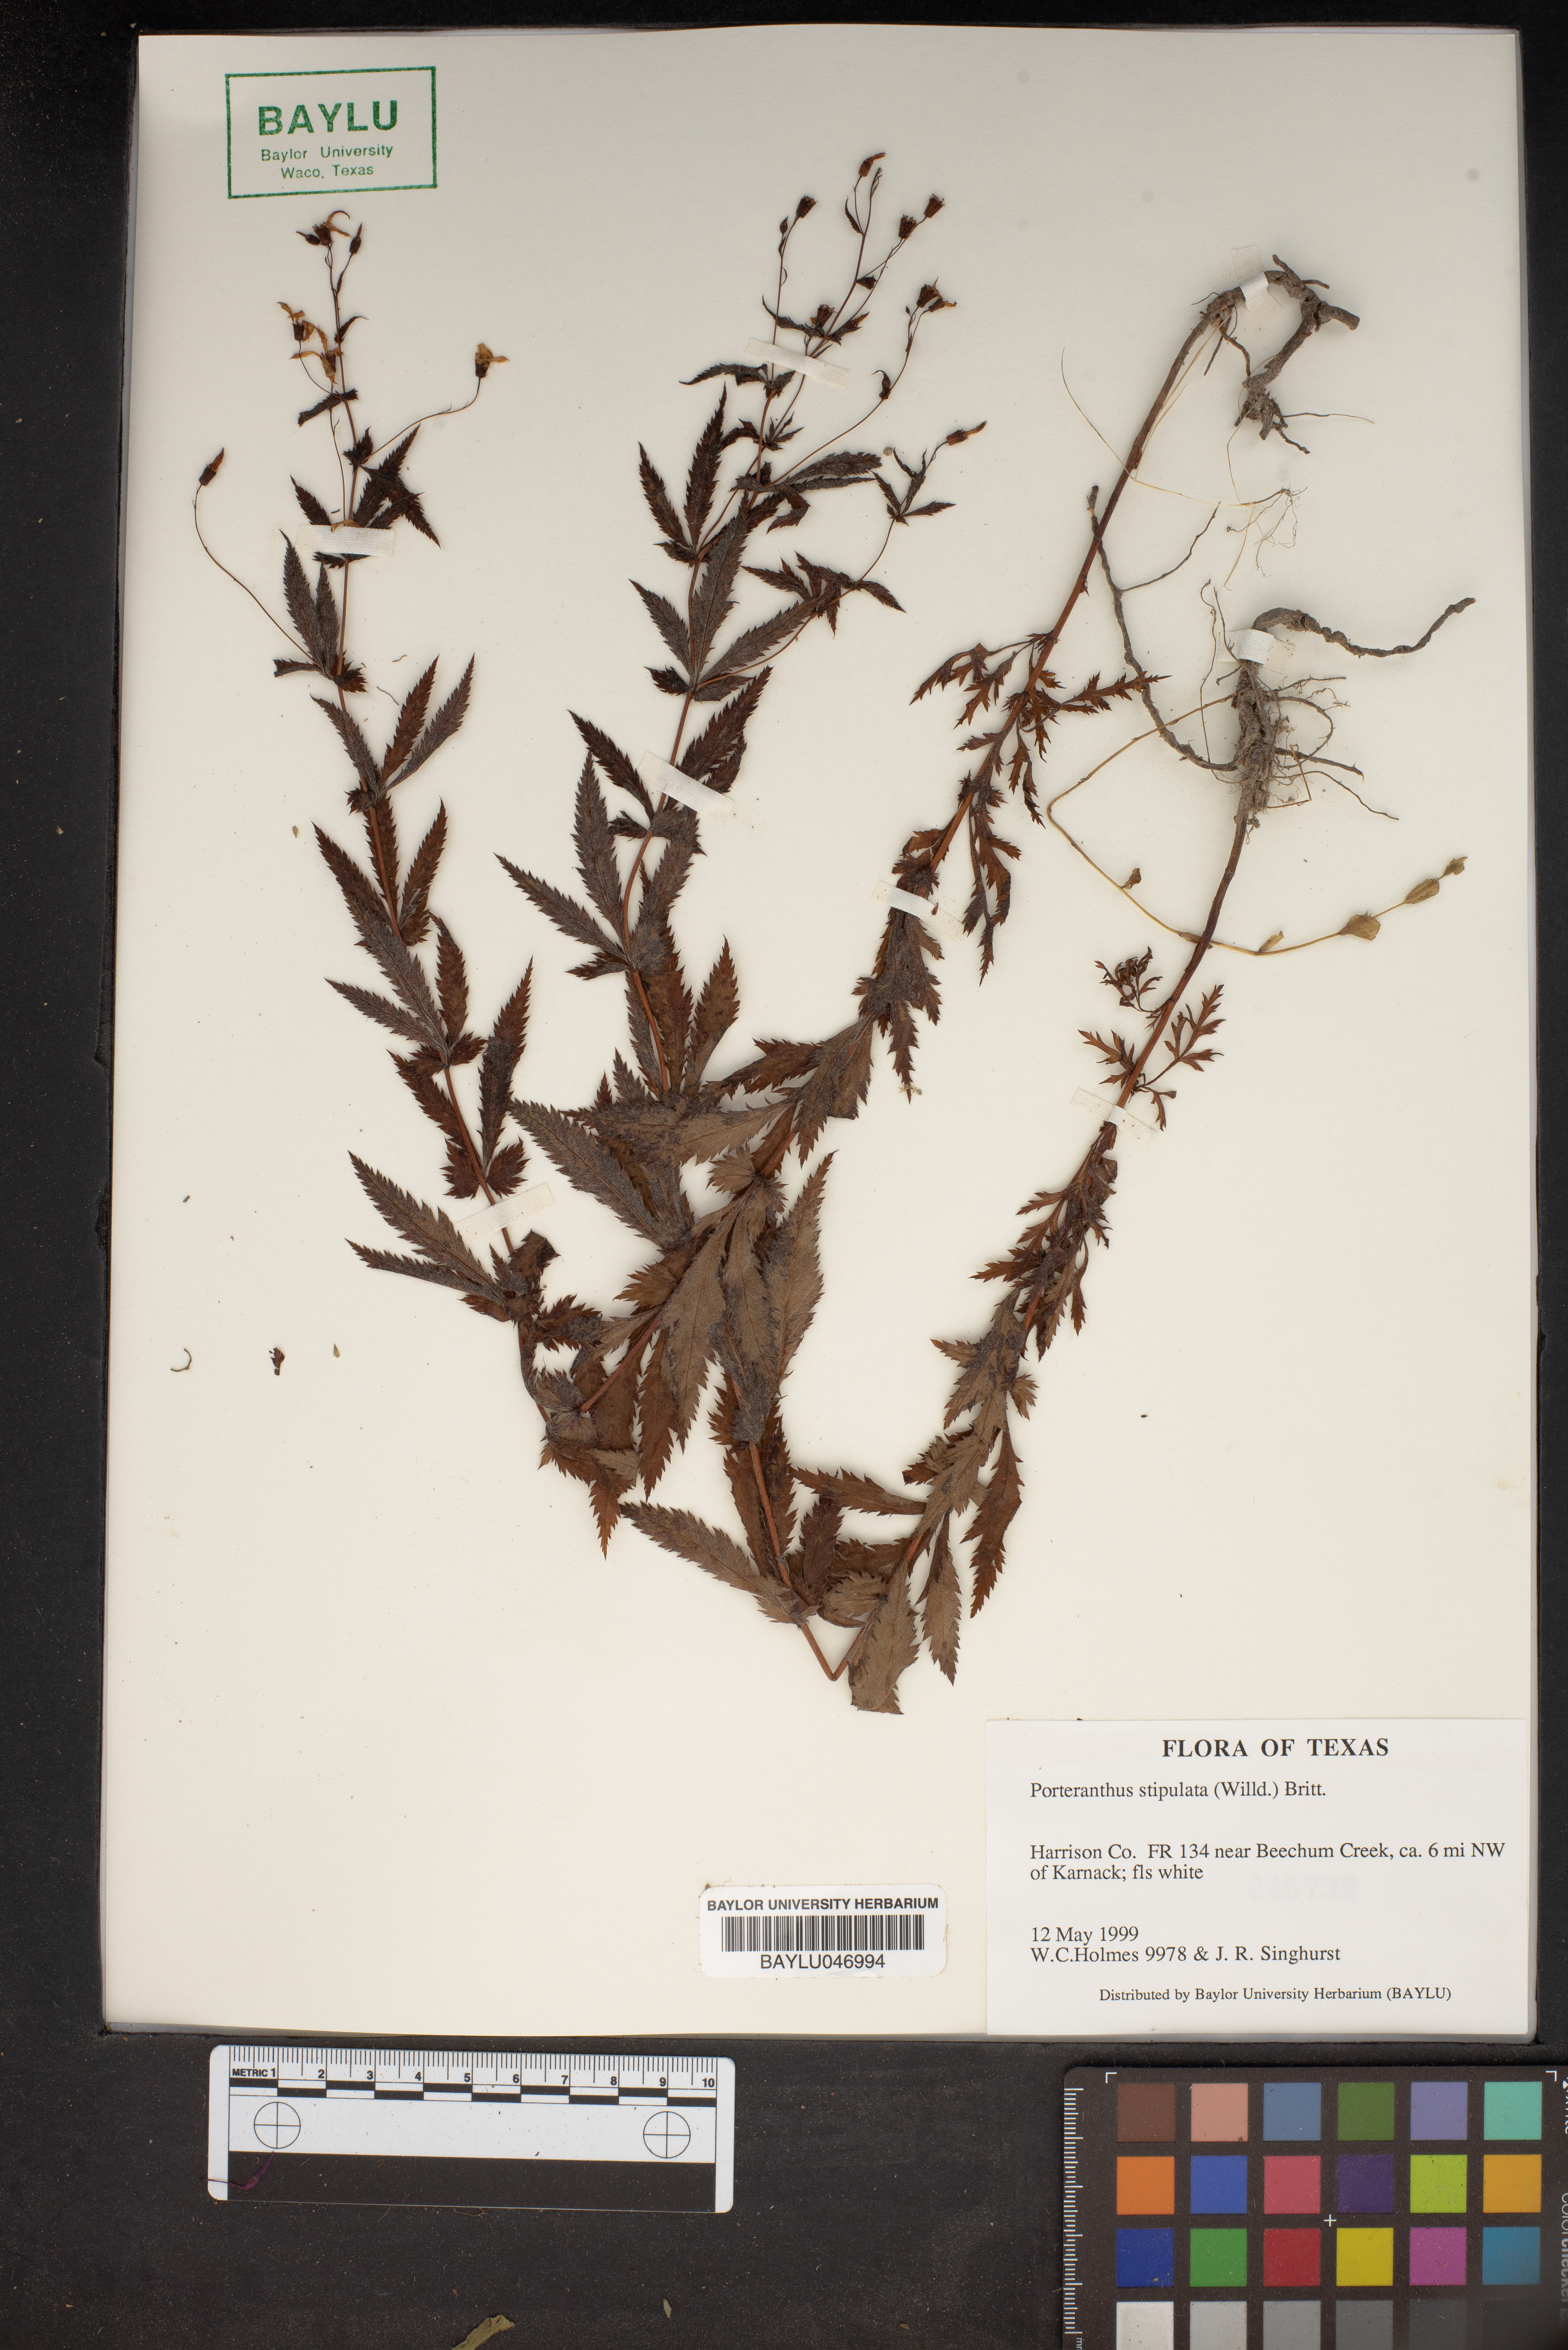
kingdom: Plantae
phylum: Tracheophyta
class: Magnoliopsida
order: Rosales
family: Rosaceae
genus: Gillenia
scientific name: Gillenia stipulata
